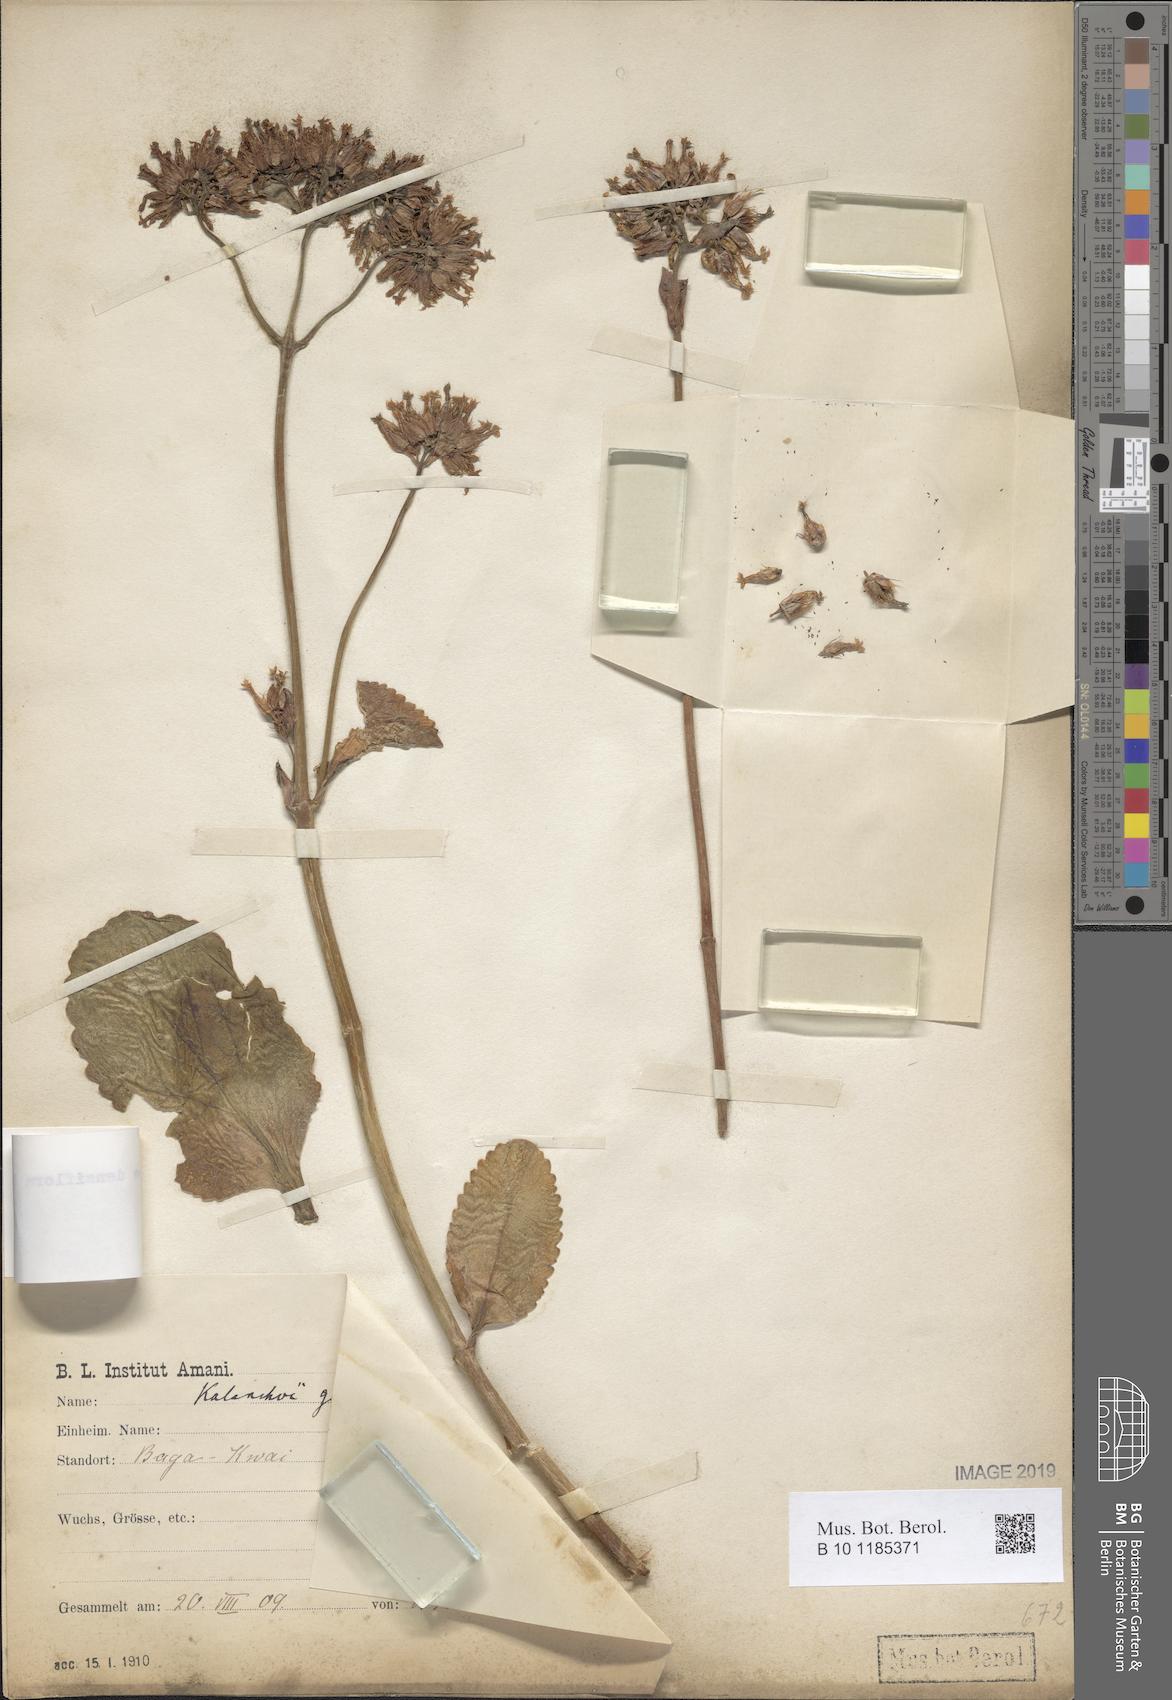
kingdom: Plantae
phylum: Tracheophyta
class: Magnoliopsida
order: Saxifragales
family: Crassulaceae
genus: Kalanchoe
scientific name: Kalanchoe densiflora
